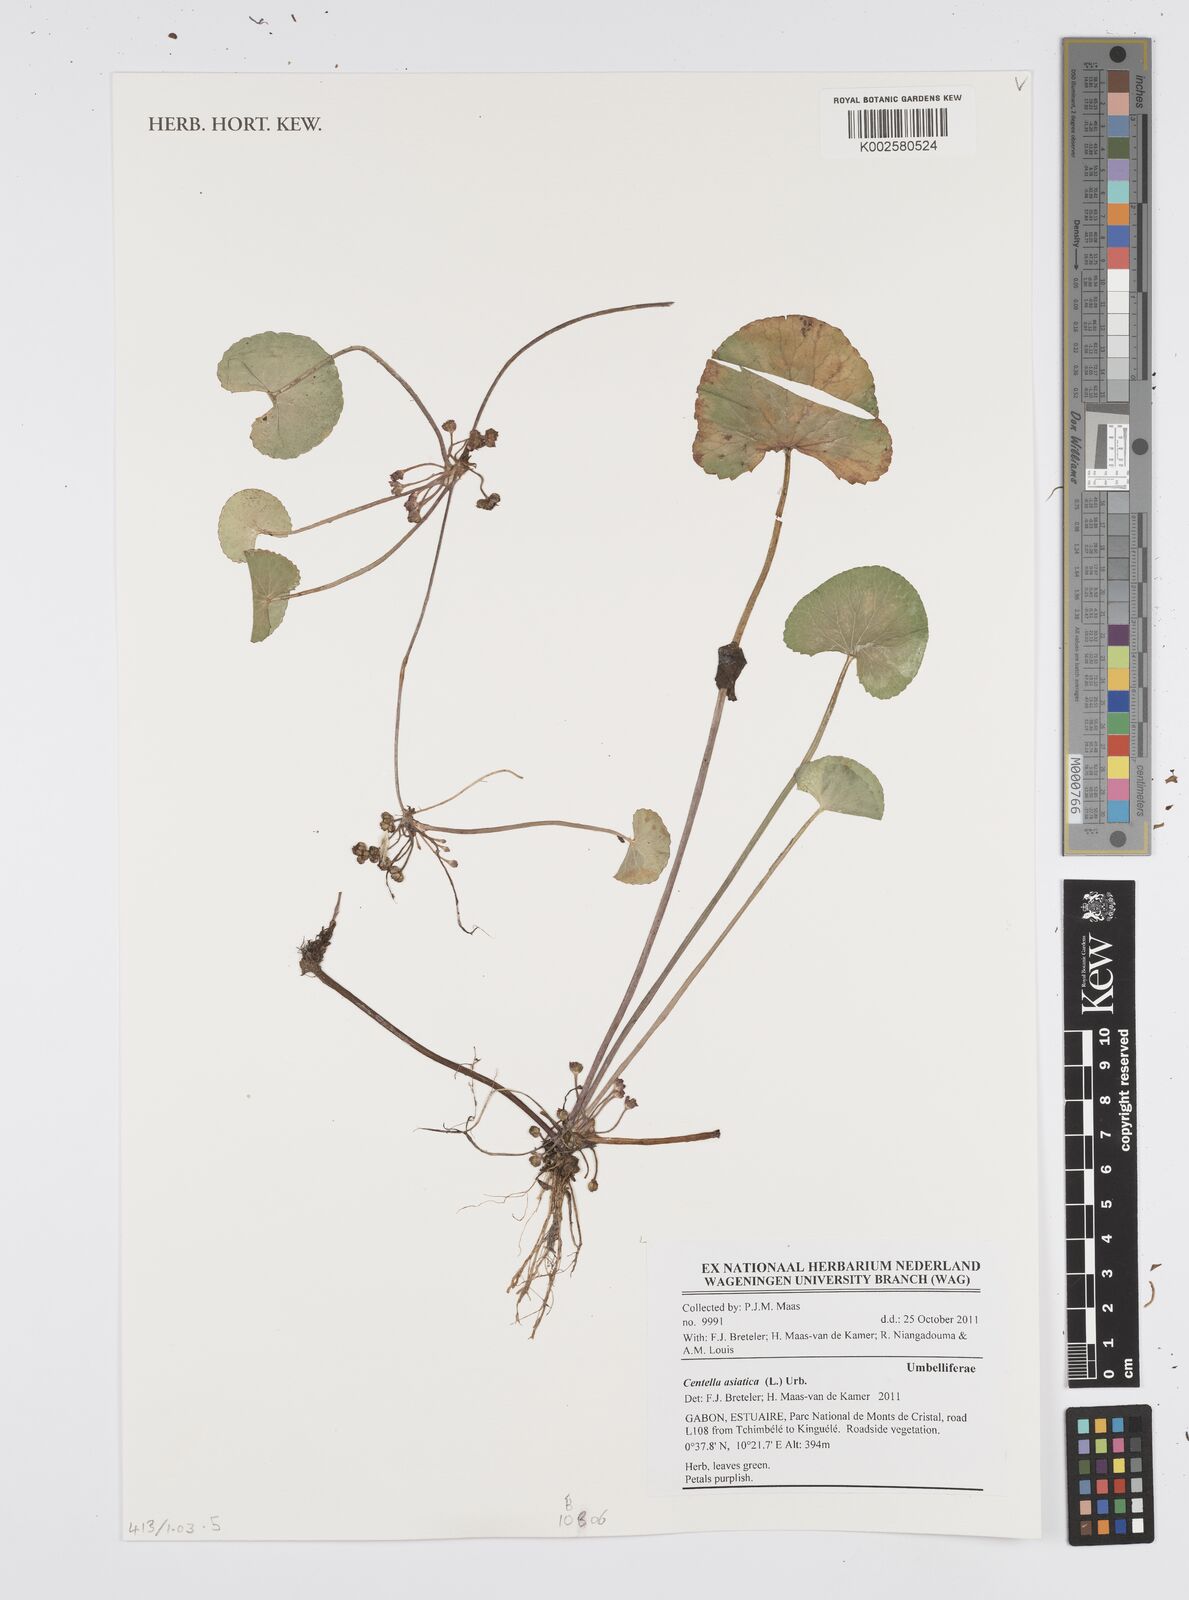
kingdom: Plantae
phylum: Tracheophyta
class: Magnoliopsida
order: Apiales
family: Apiaceae
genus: Centella
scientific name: Centella asiatica
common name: Spadeleaf
